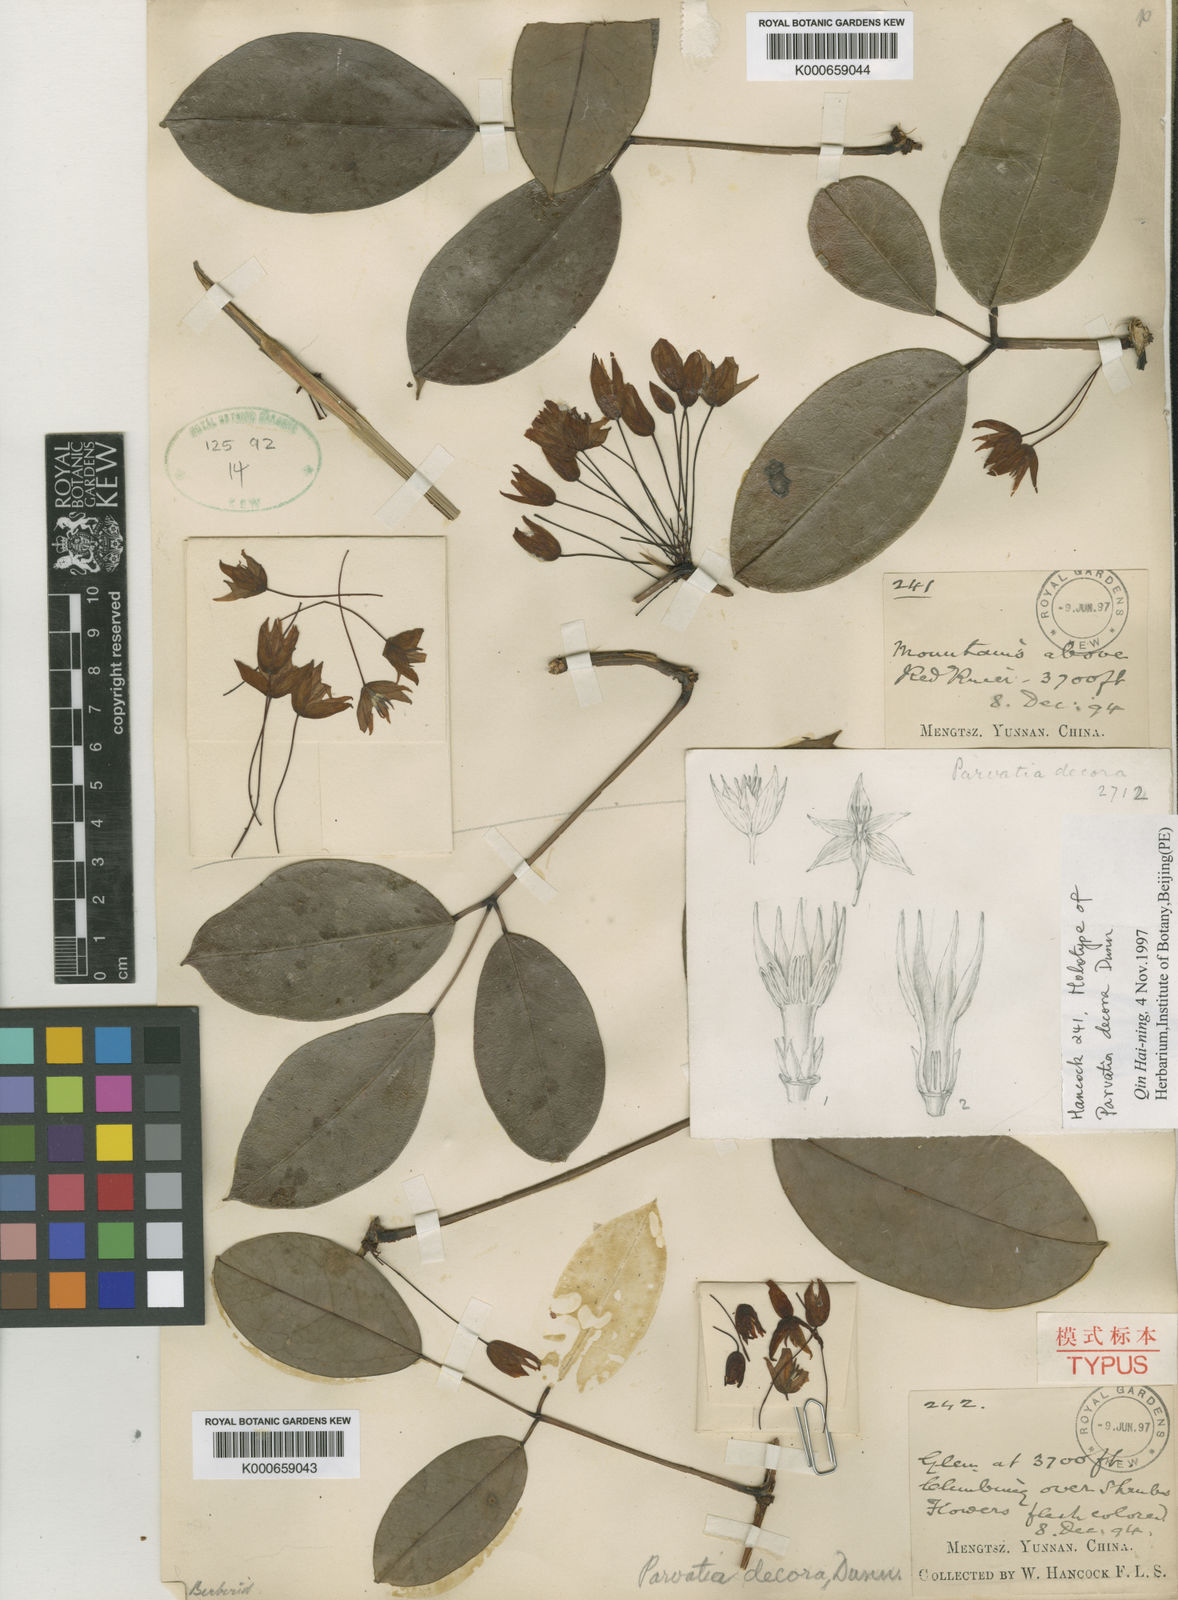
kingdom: Plantae
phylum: Tracheophyta
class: Magnoliopsida
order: Ranunculales
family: Lardizabalaceae
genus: Stauntonia
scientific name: Stauntonia decora
